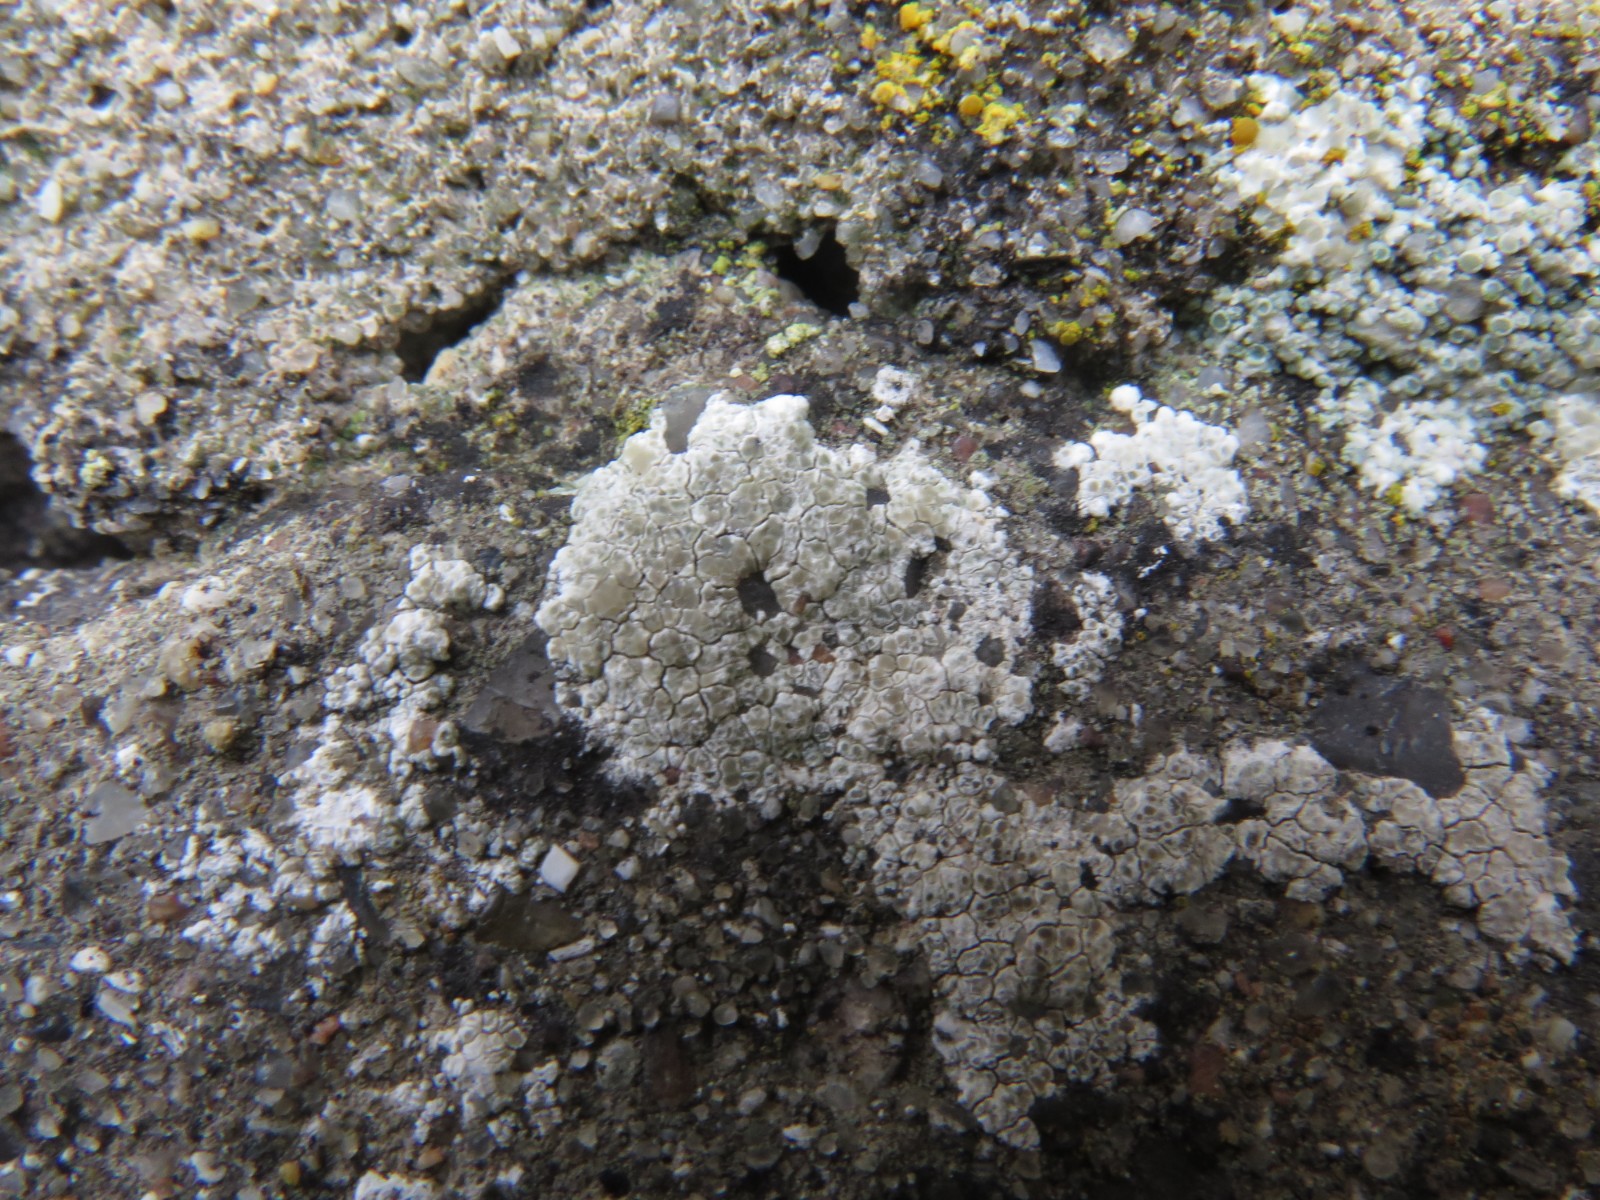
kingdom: Fungi
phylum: Ascomycota
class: Lecanoromycetes
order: Lecanorales
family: Lecanoraceae
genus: Polyozosia
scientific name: Polyozosia albescens
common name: cement-kantskivelav
